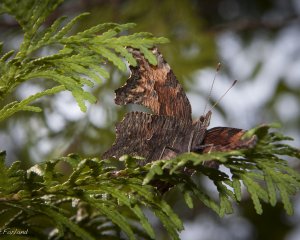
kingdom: Animalia
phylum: Arthropoda
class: Insecta
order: Lepidoptera
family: Nymphalidae
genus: Polygonia
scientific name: Polygonia progne
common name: Gray Comma
